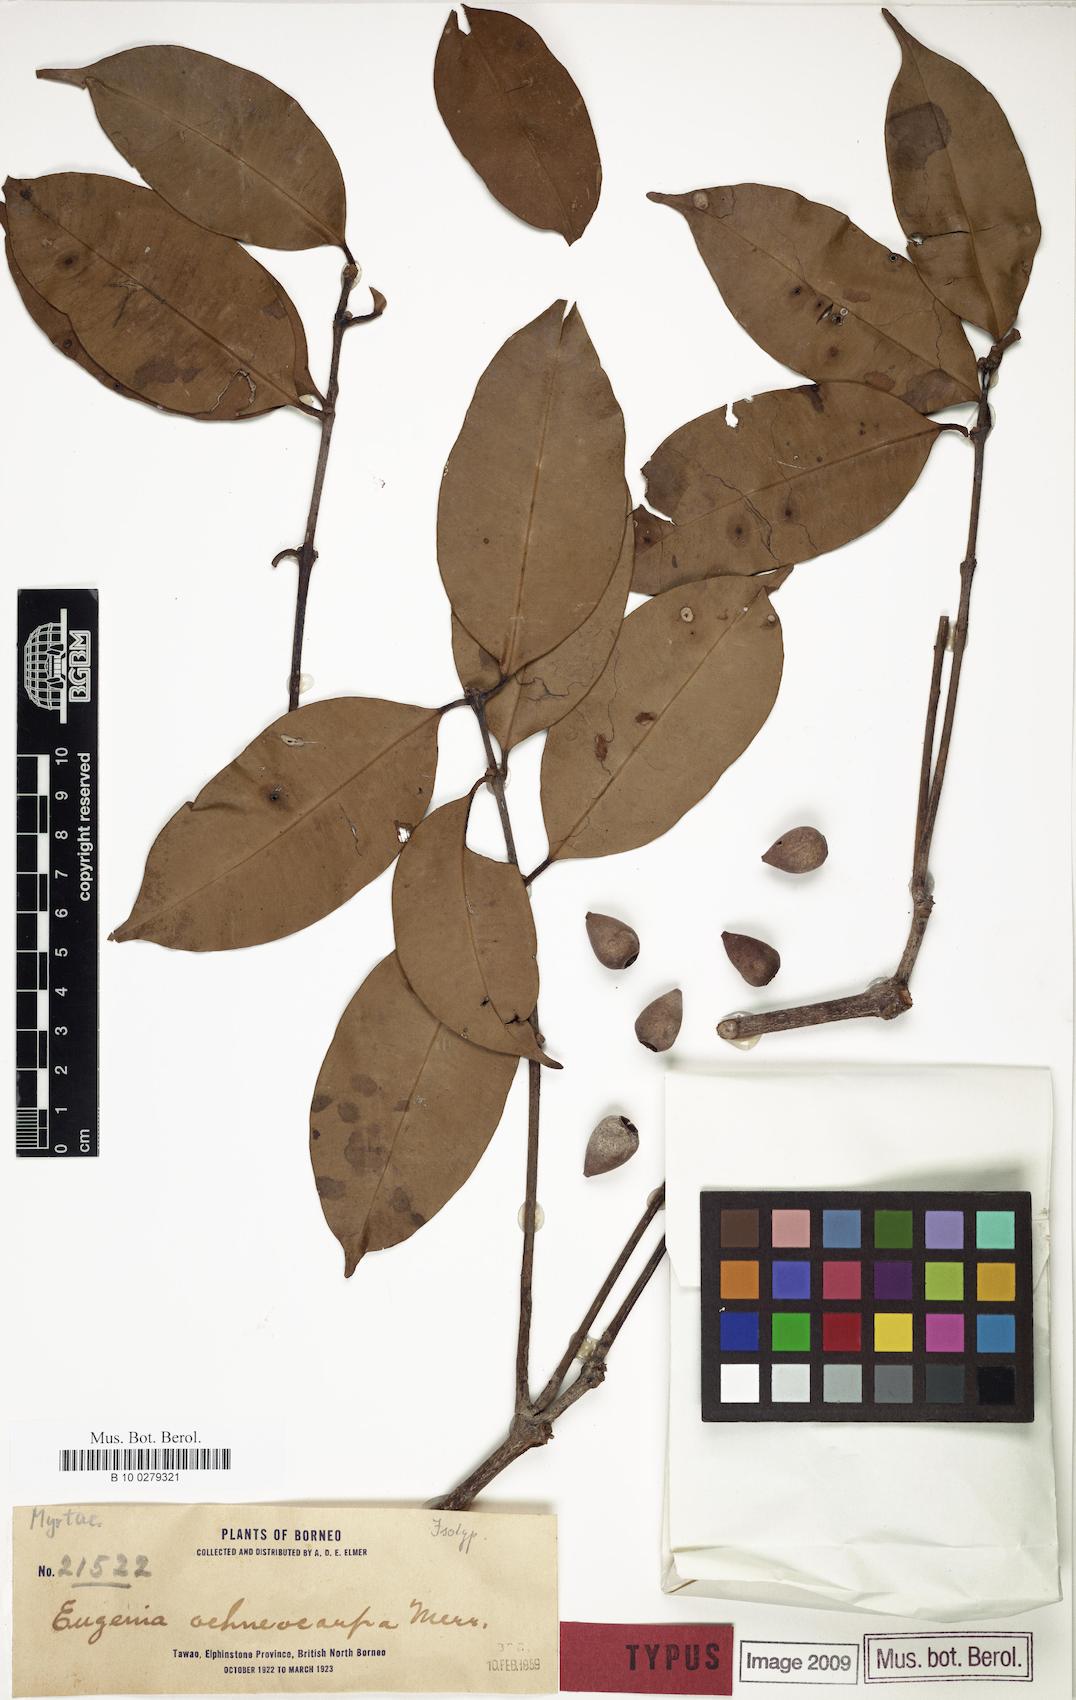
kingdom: Plantae
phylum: Tracheophyta
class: Magnoliopsida
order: Myrtales
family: Myrtaceae
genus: Syzygium
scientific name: Syzygium oligomyrum
